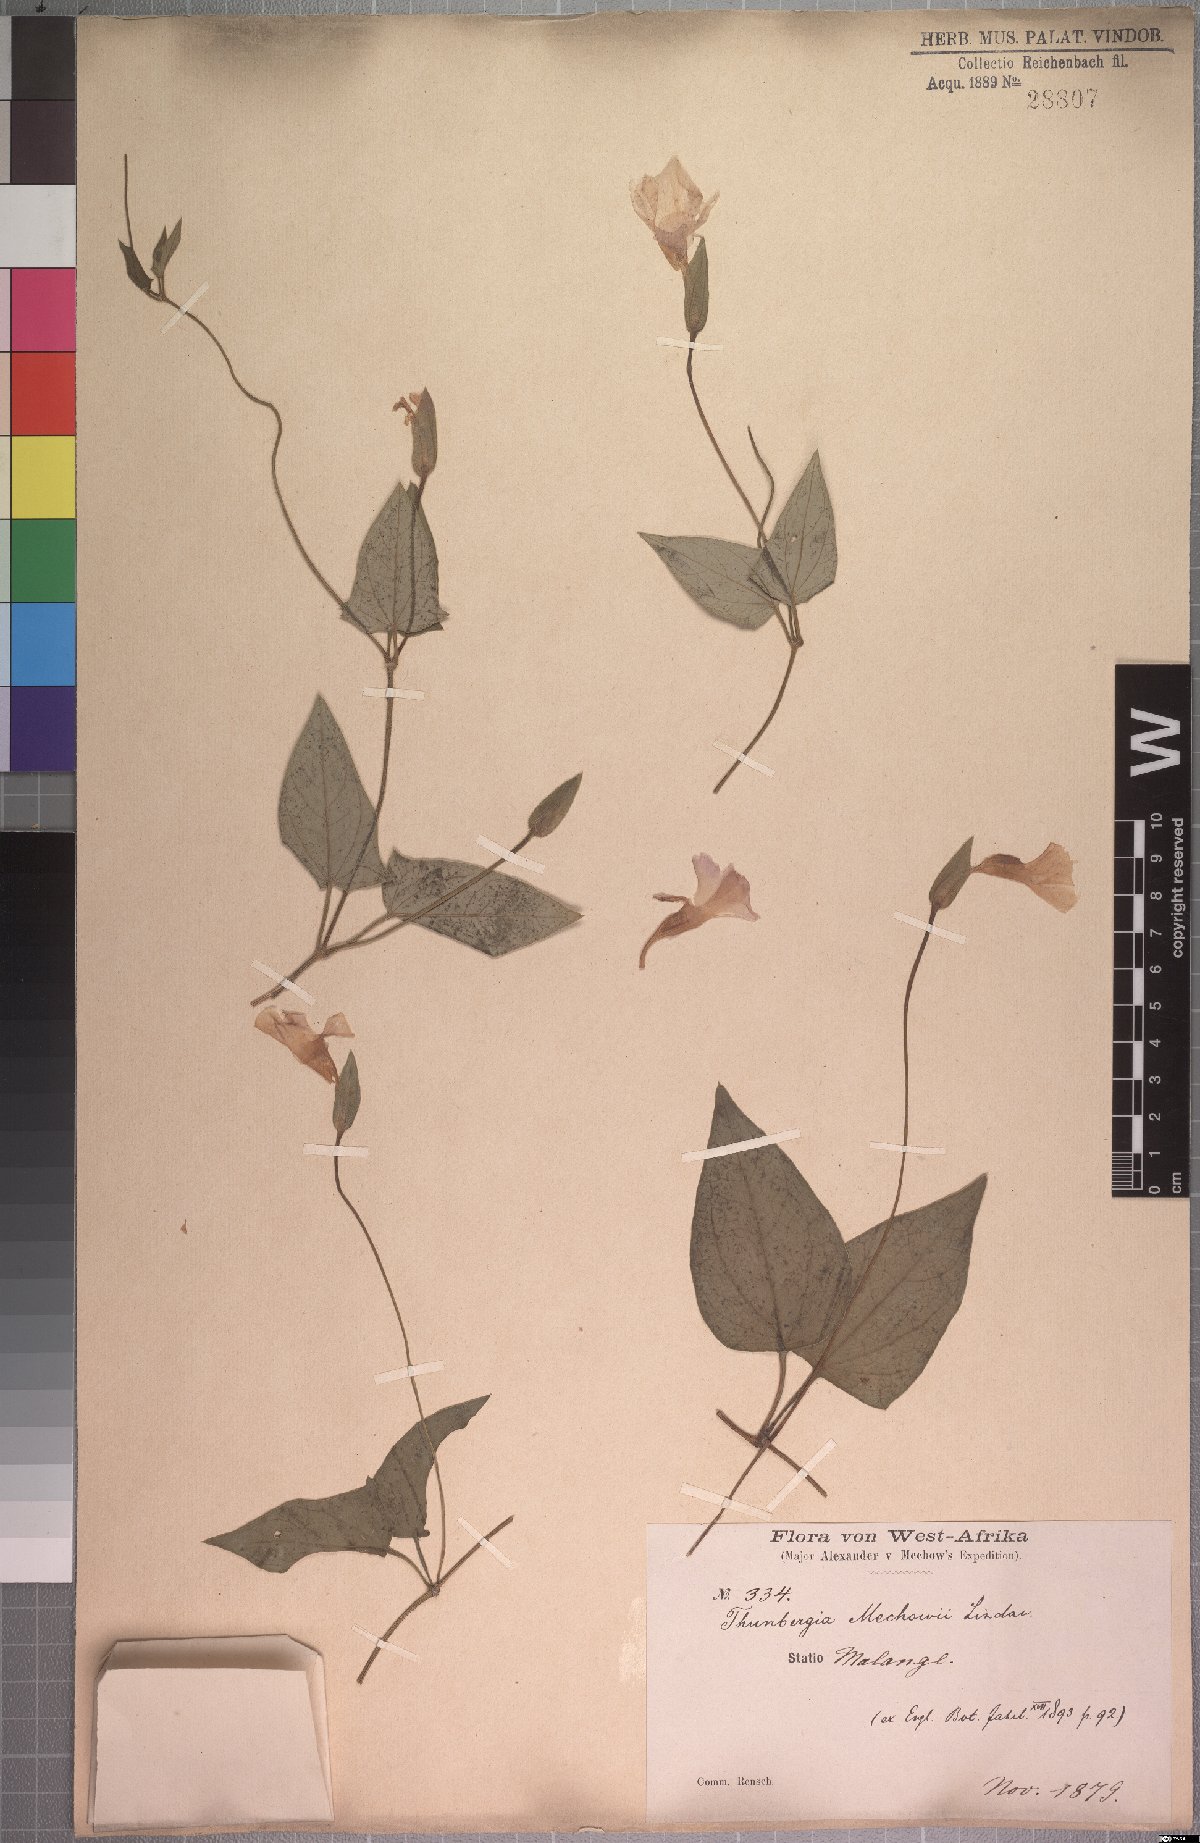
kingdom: Plantae
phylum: Tracheophyta
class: Magnoliopsida
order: Lamiales
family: Acanthaceae
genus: Thunbergia
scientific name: Thunbergia mechowii
